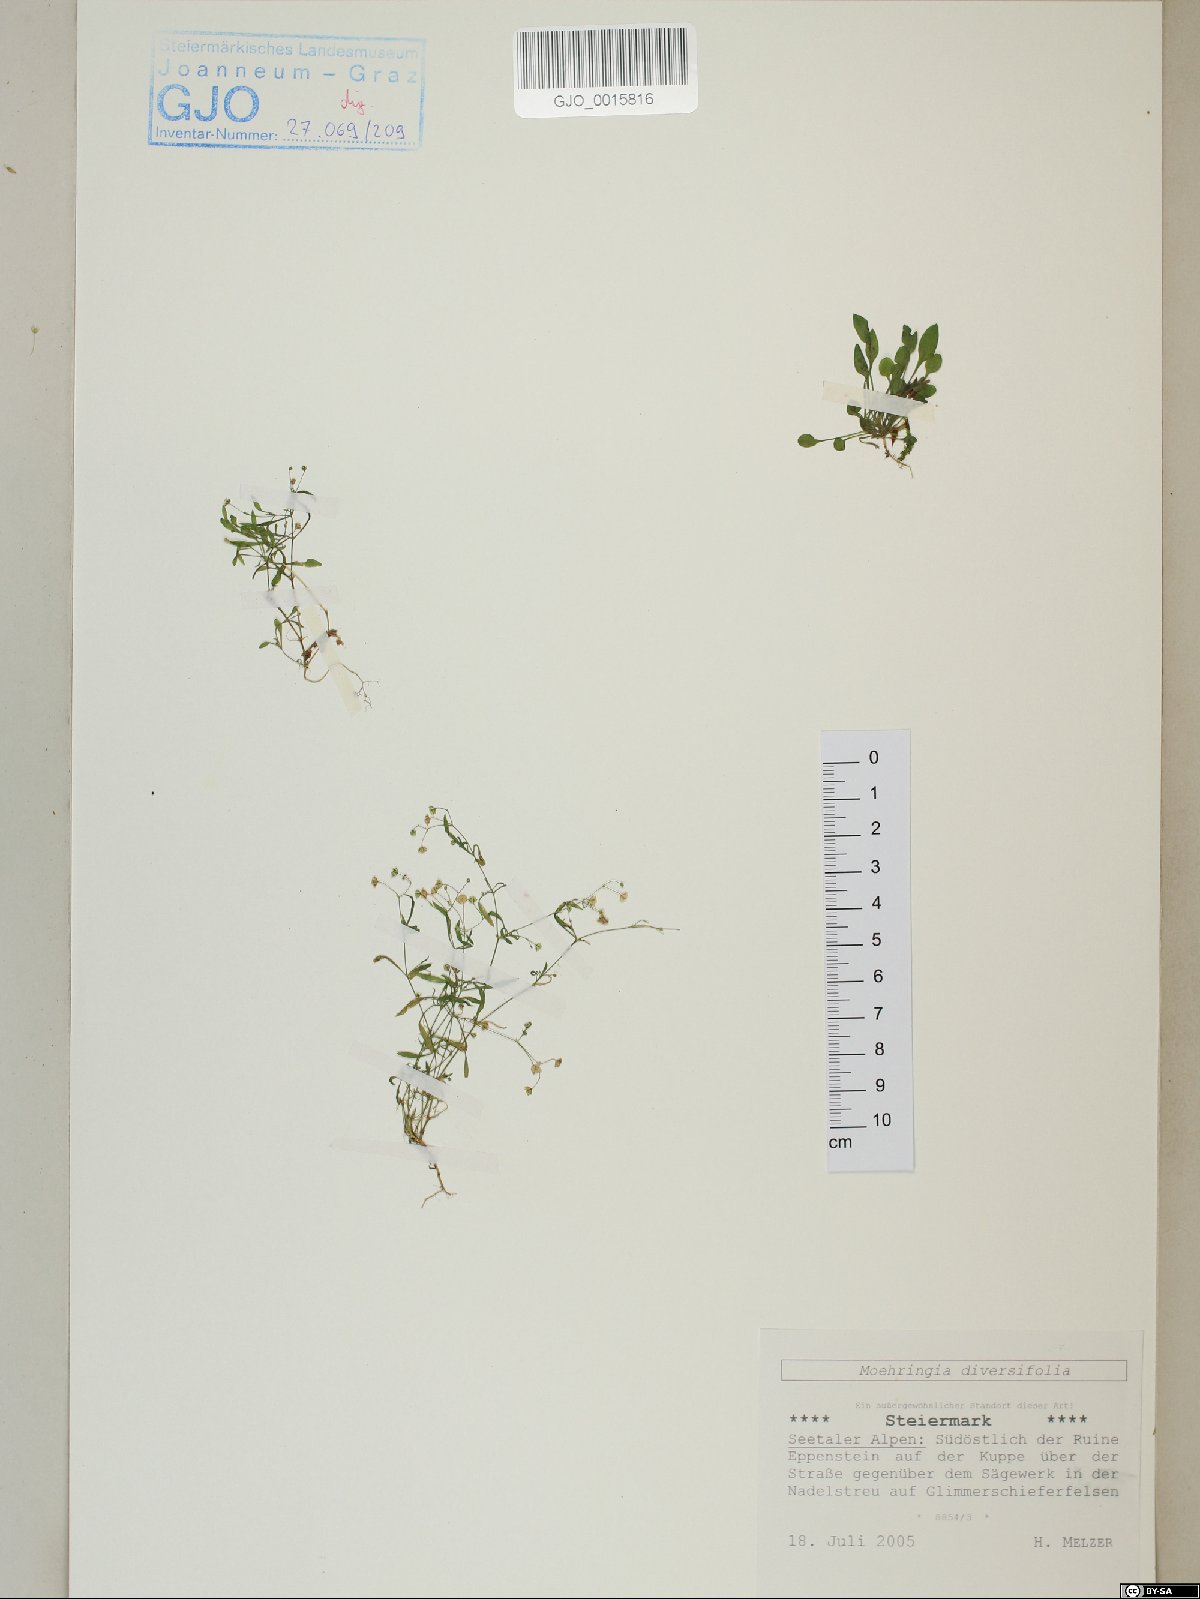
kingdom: Plantae
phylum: Tracheophyta
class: Magnoliopsida
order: Caryophyllales
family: Caryophyllaceae
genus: Moehringia
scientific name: Moehringia diversifolia
